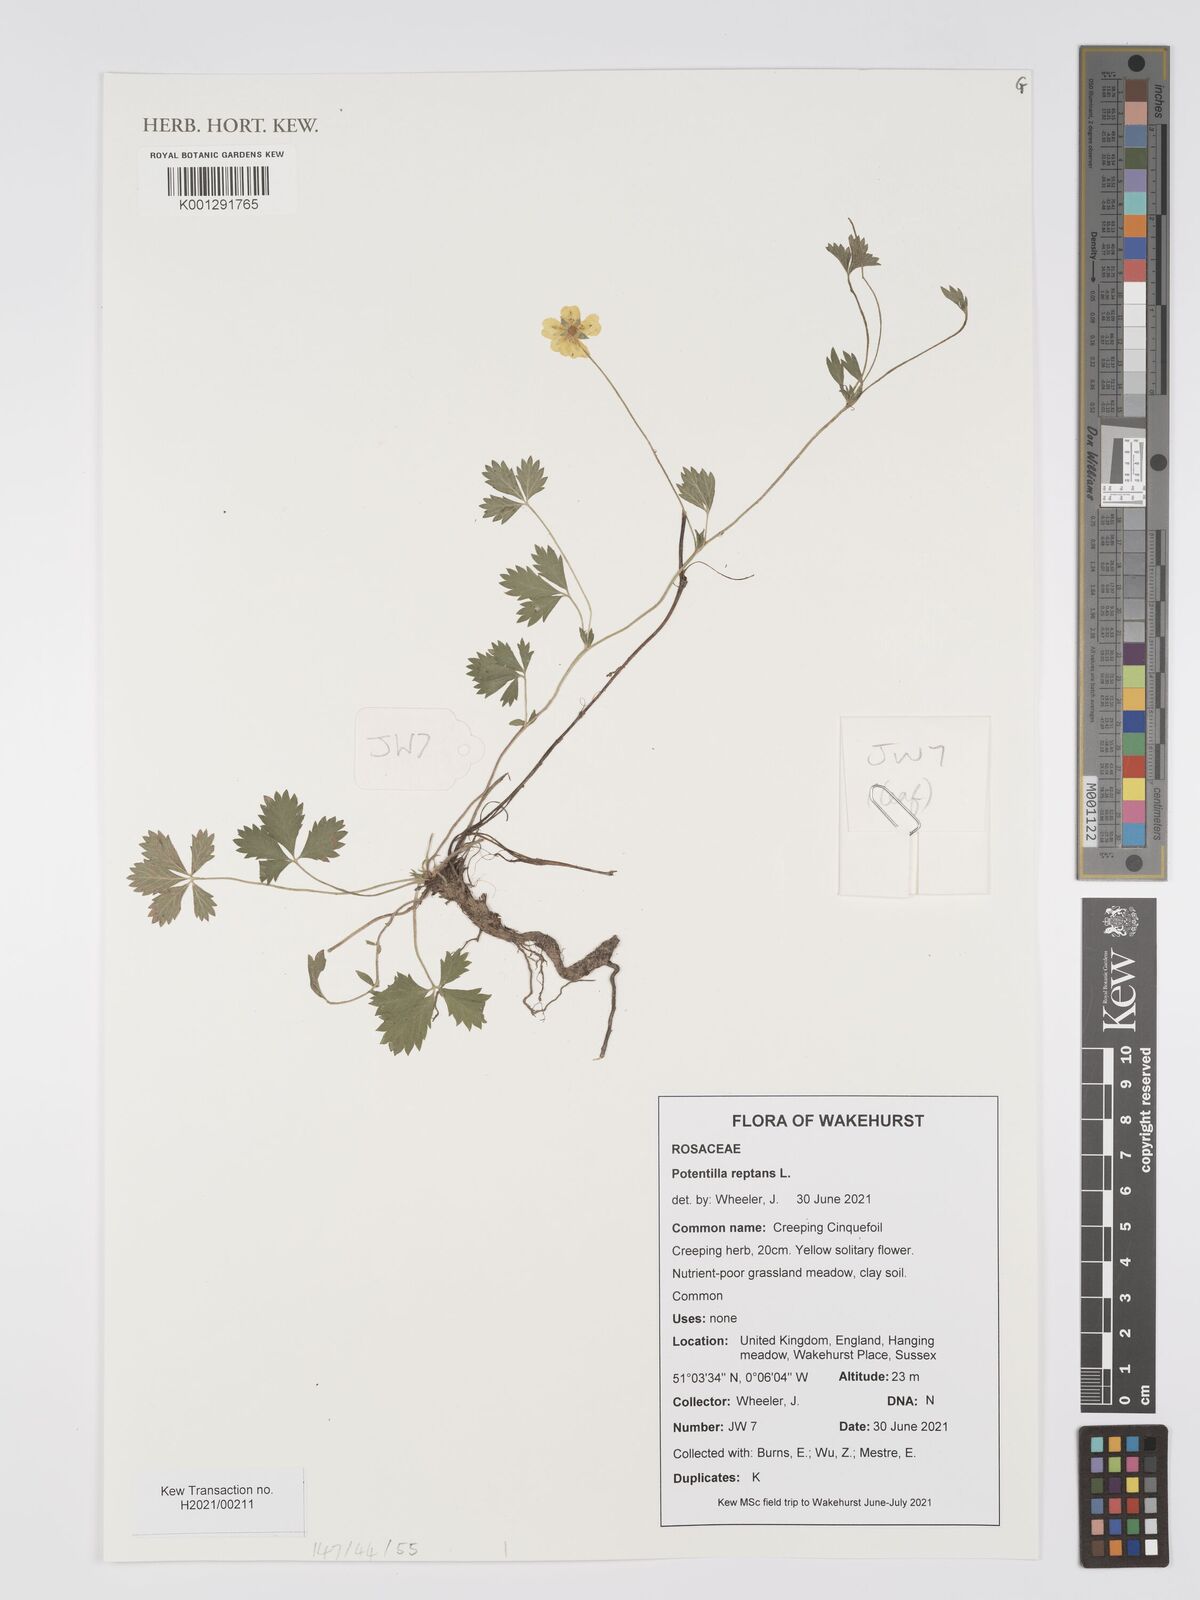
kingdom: Plantae
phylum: Tracheophyta
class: Magnoliopsida
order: Rosales
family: Rosaceae
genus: Potentilla
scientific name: Potentilla reptans
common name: Creeping cinquefoil
